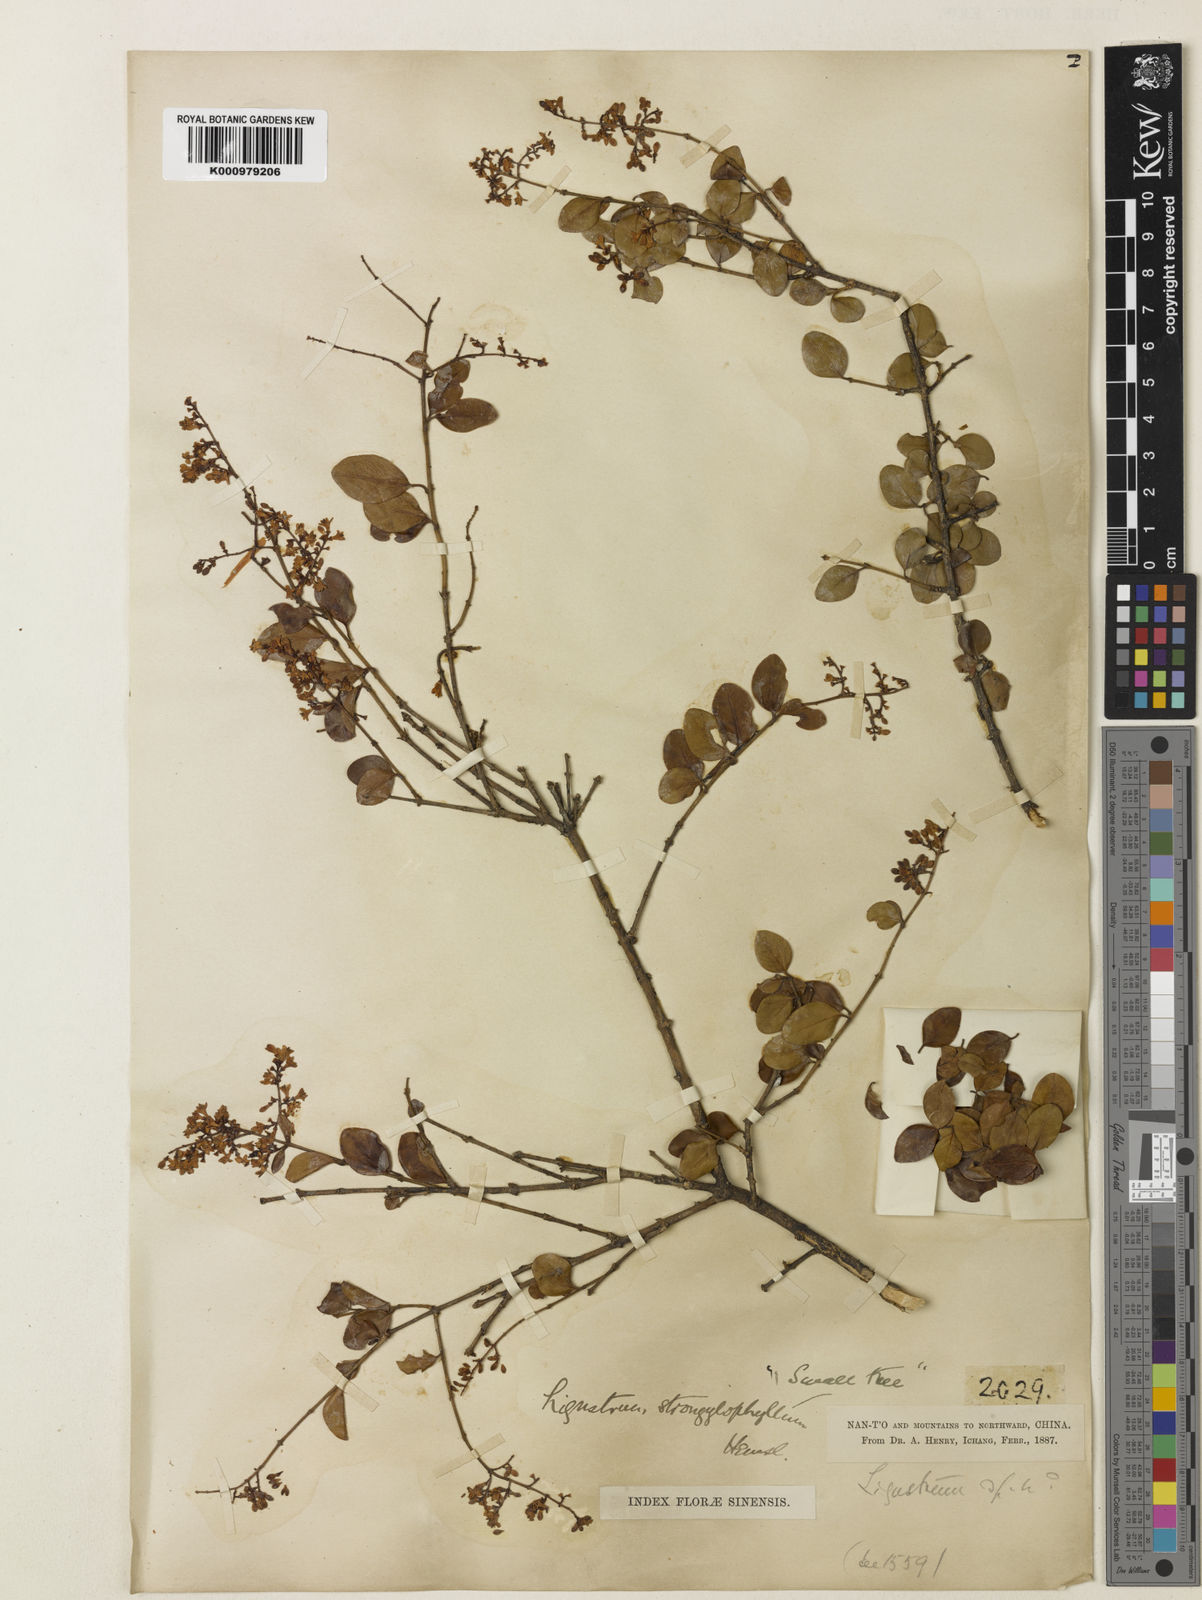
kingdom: Plantae
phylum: Tracheophyta
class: Magnoliopsida
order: Lamiales
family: Oleaceae
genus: Ligustrum
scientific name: Ligustrum strongylophyllum
